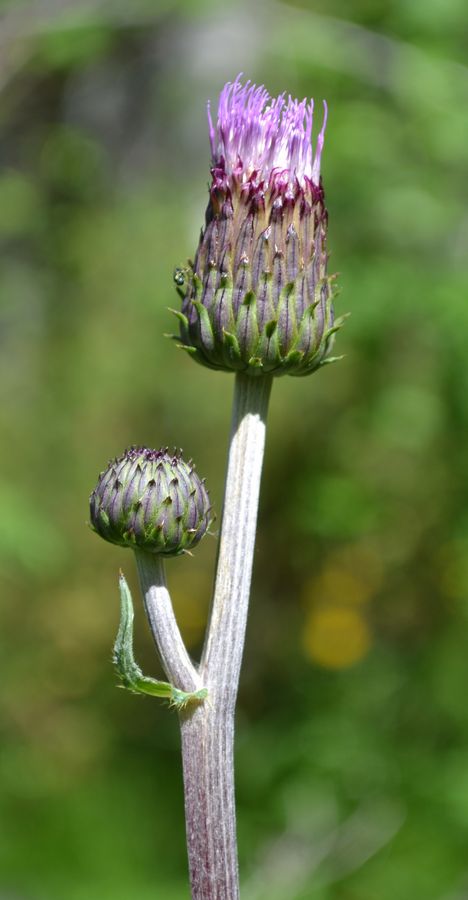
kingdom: Plantae
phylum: Tracheophyta
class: Magnoliopsida
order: Asterales
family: Asteraceae
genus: Cirsium
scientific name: Cirsium heterophyllum
